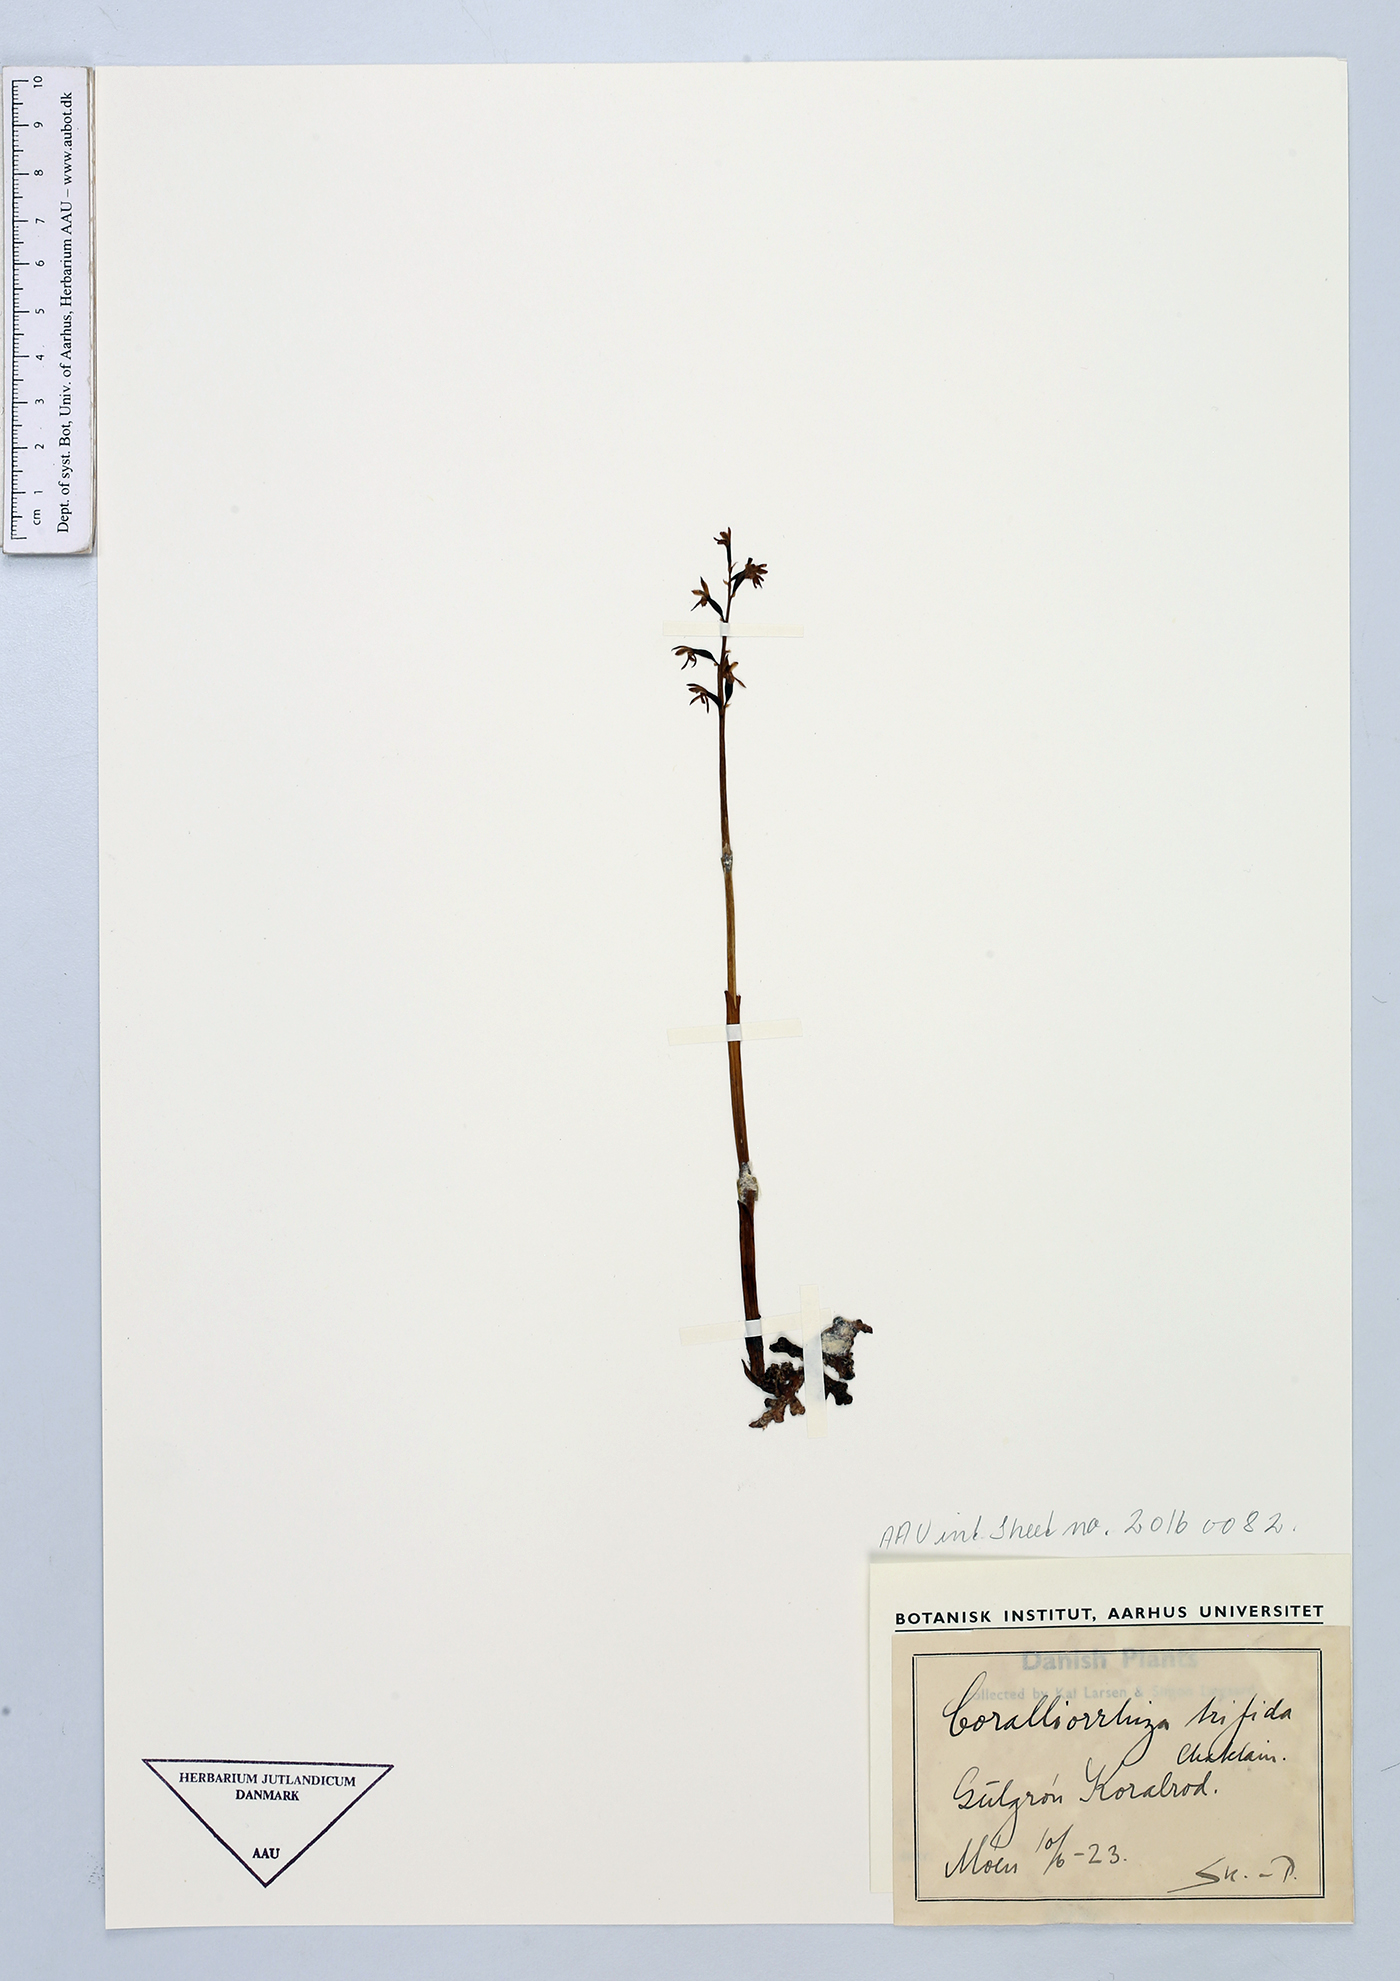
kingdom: Plantae
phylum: Tracheophyta
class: Liliopsida
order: Asparagales
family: Orchidaceae
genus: Corallorhiza
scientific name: Corallorhiza trifida
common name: Yellow coralroot
